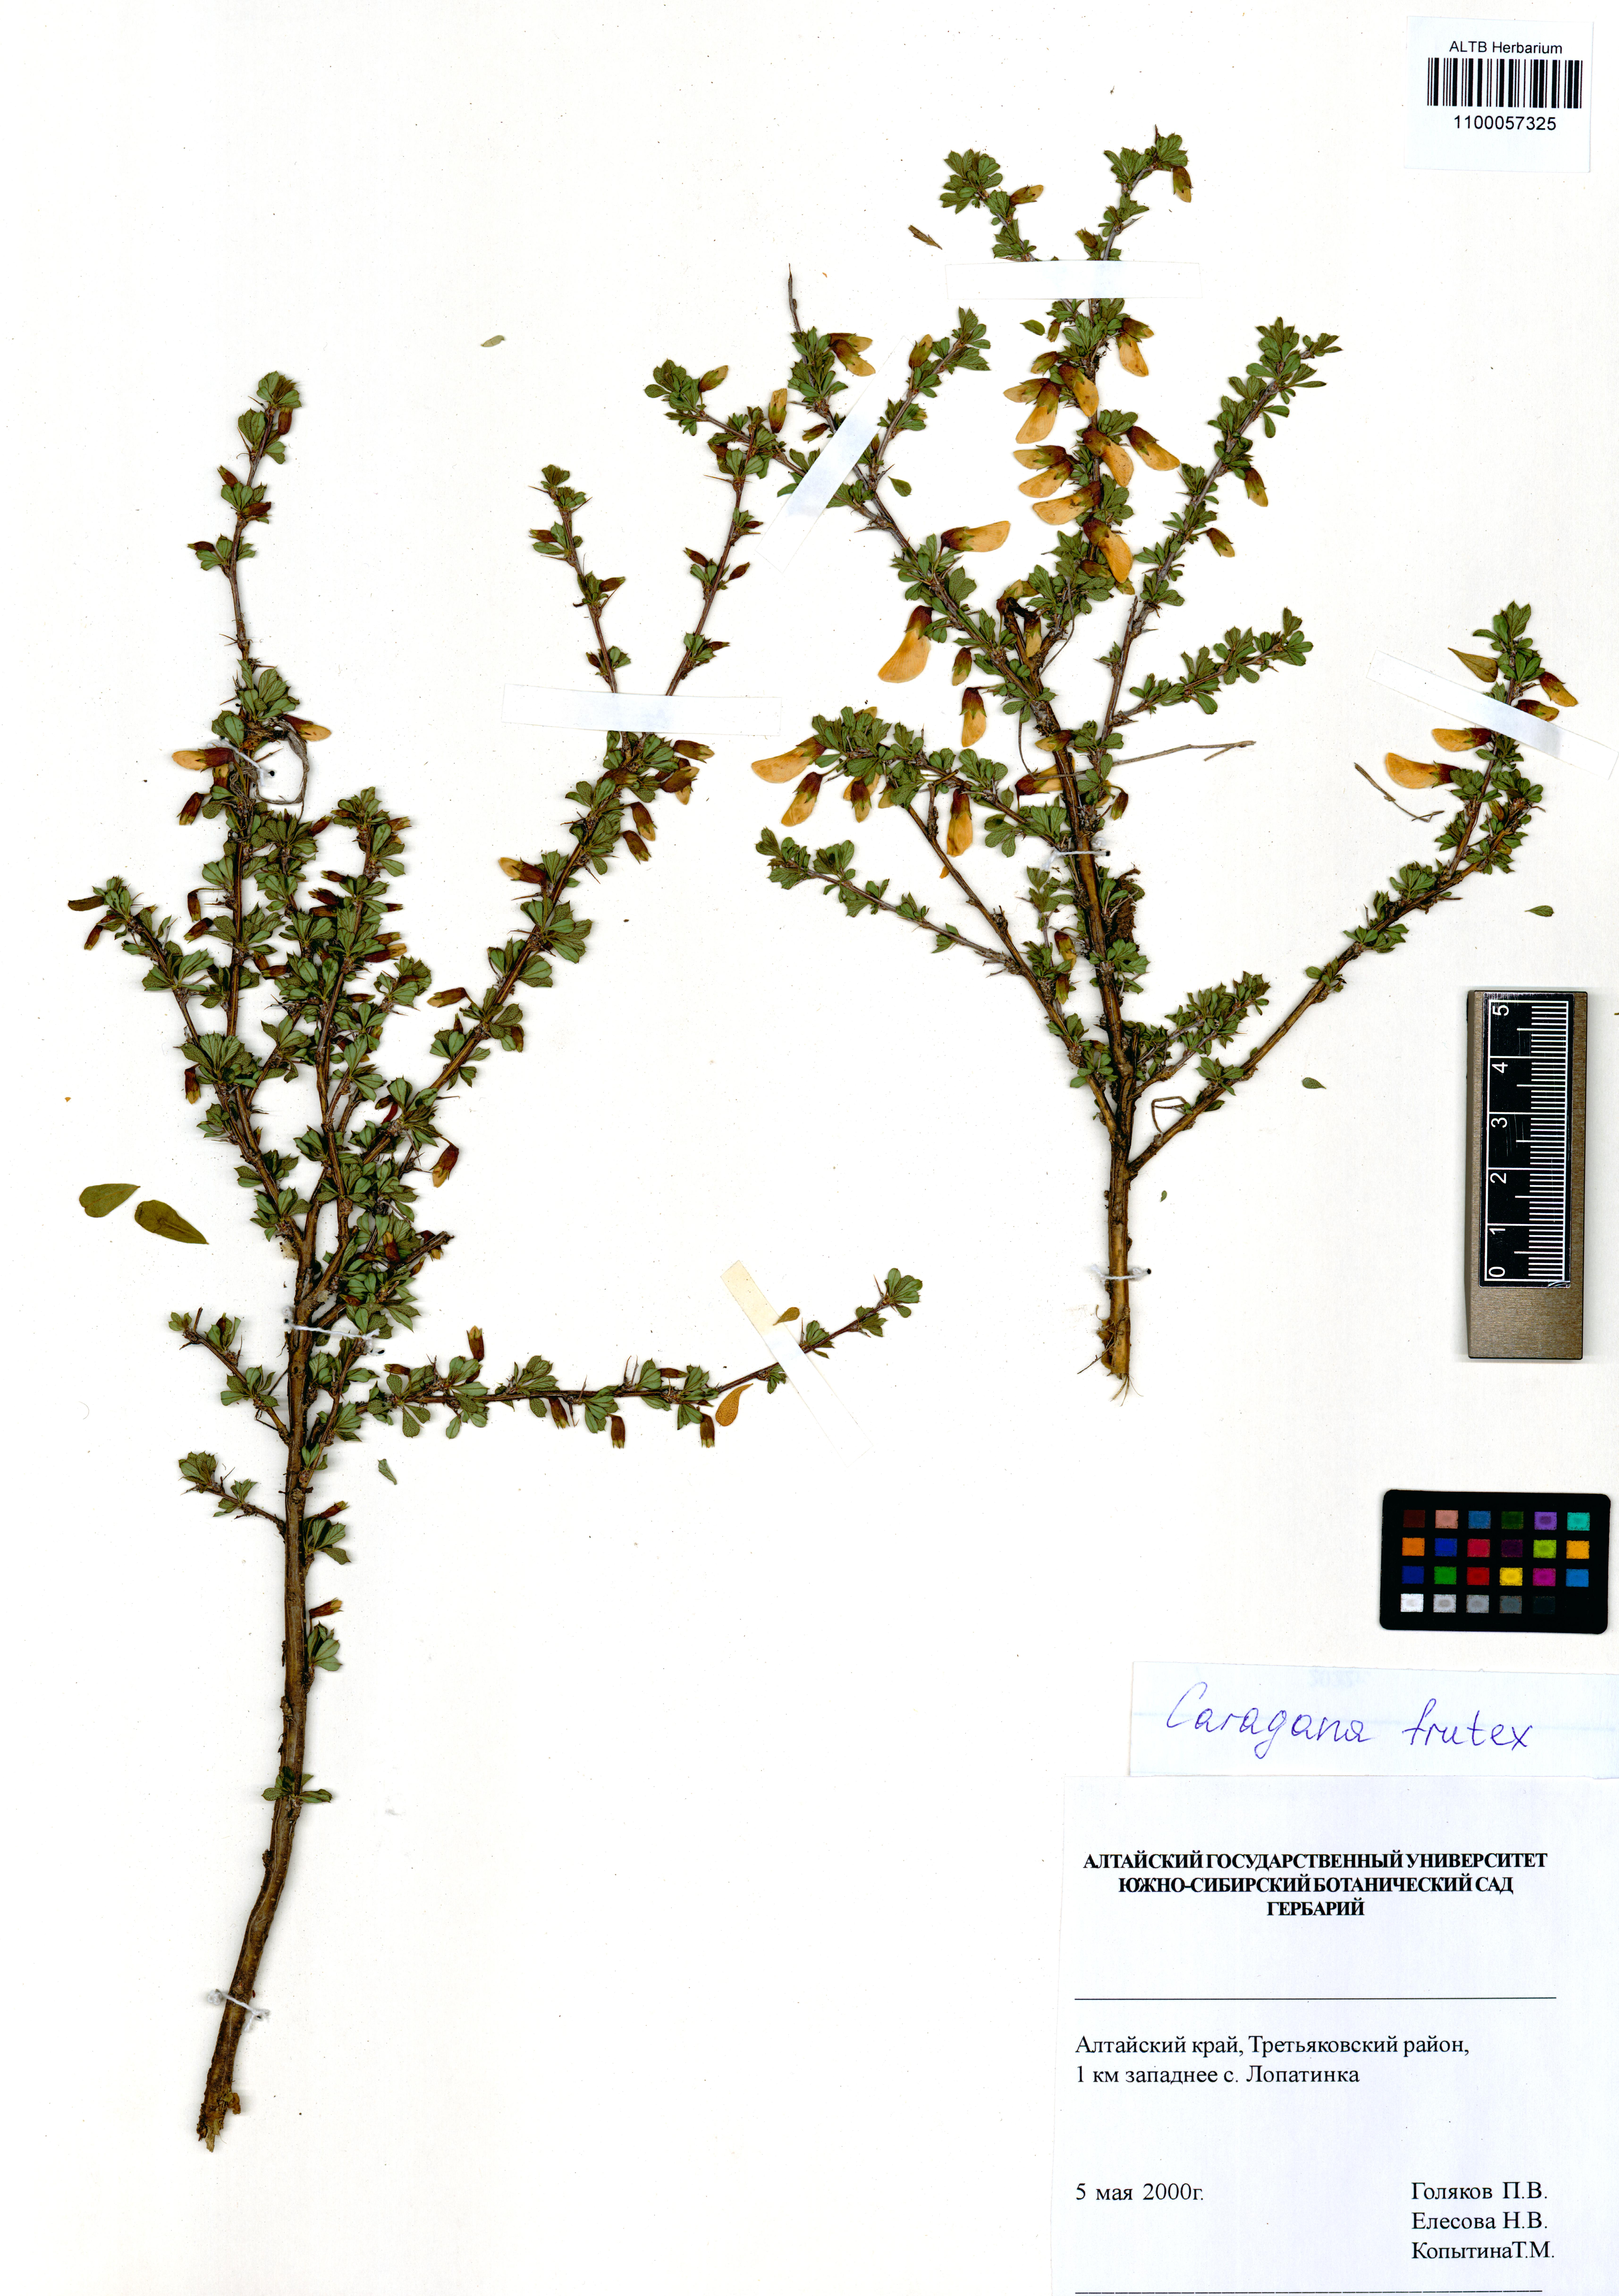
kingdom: Plantae
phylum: Tracheophyta
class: Magnoliopsida
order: Fabales
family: Fabaceae
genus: Caragana
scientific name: Caragana frutex
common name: Russian peashrub
